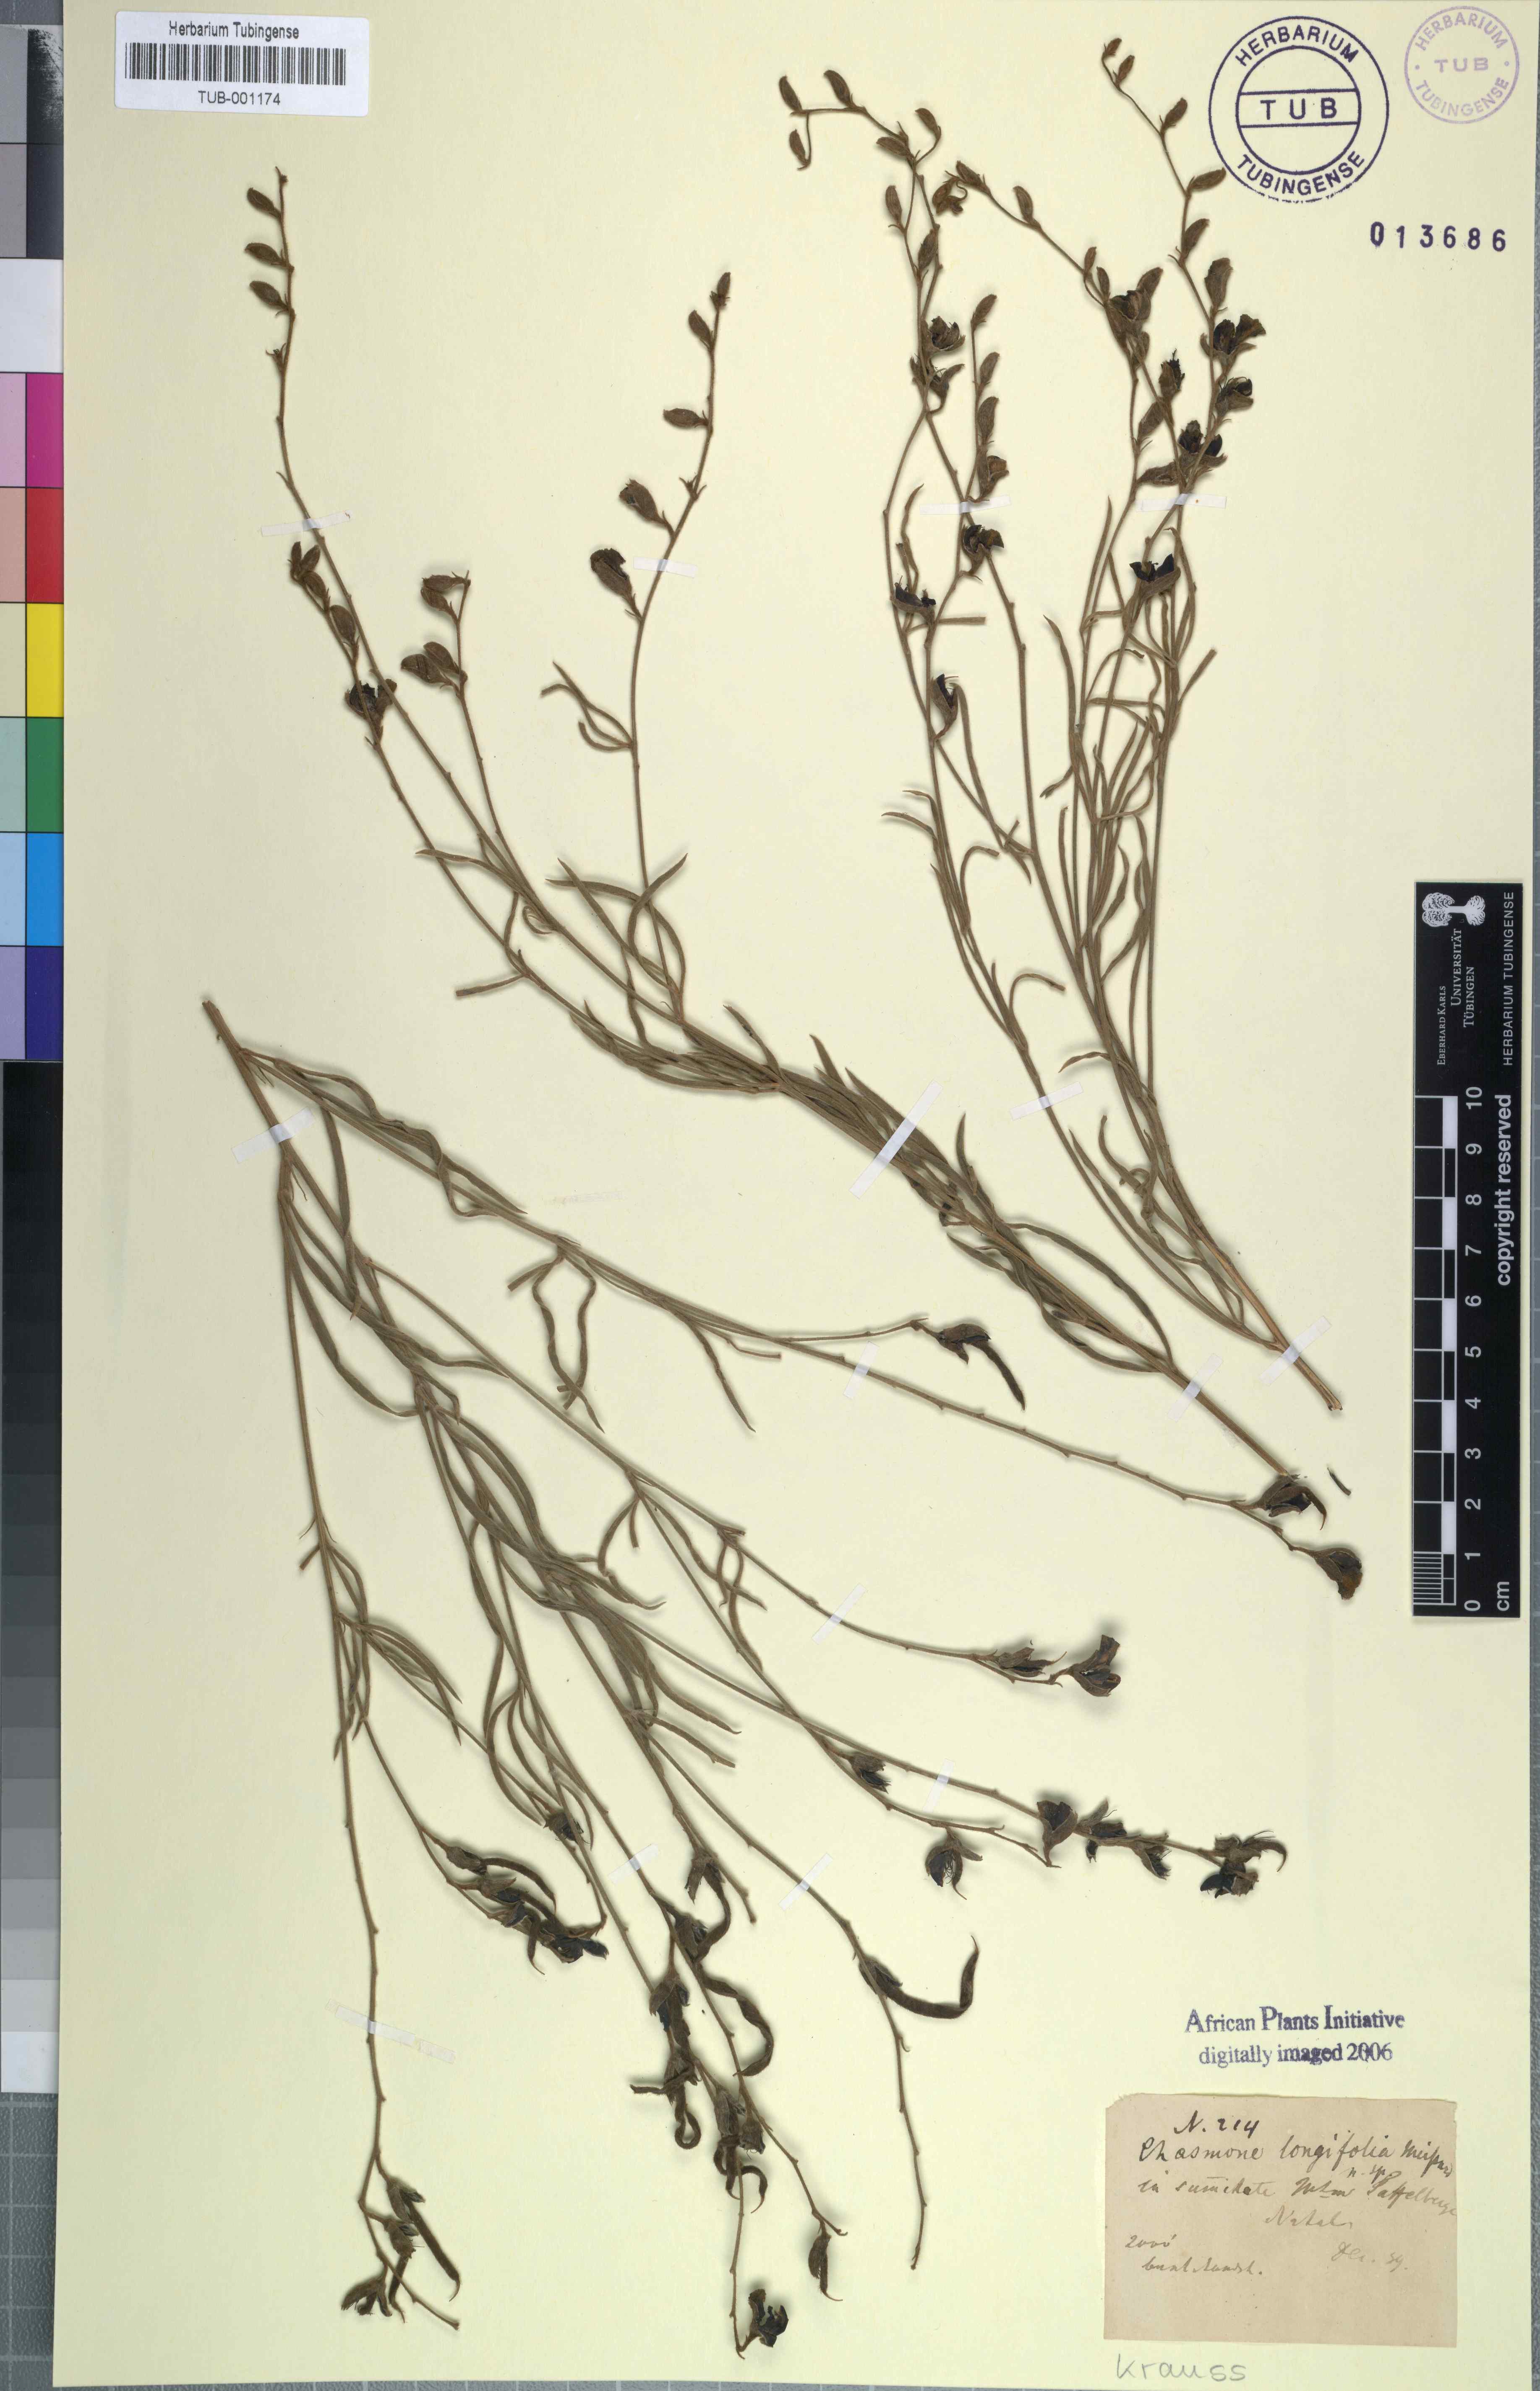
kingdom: Plantae
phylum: Tracheophyta
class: Magnoliopsida
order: Fabales
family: Fabaceae
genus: Argyrolobium
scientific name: Argyrolobium longifolium
